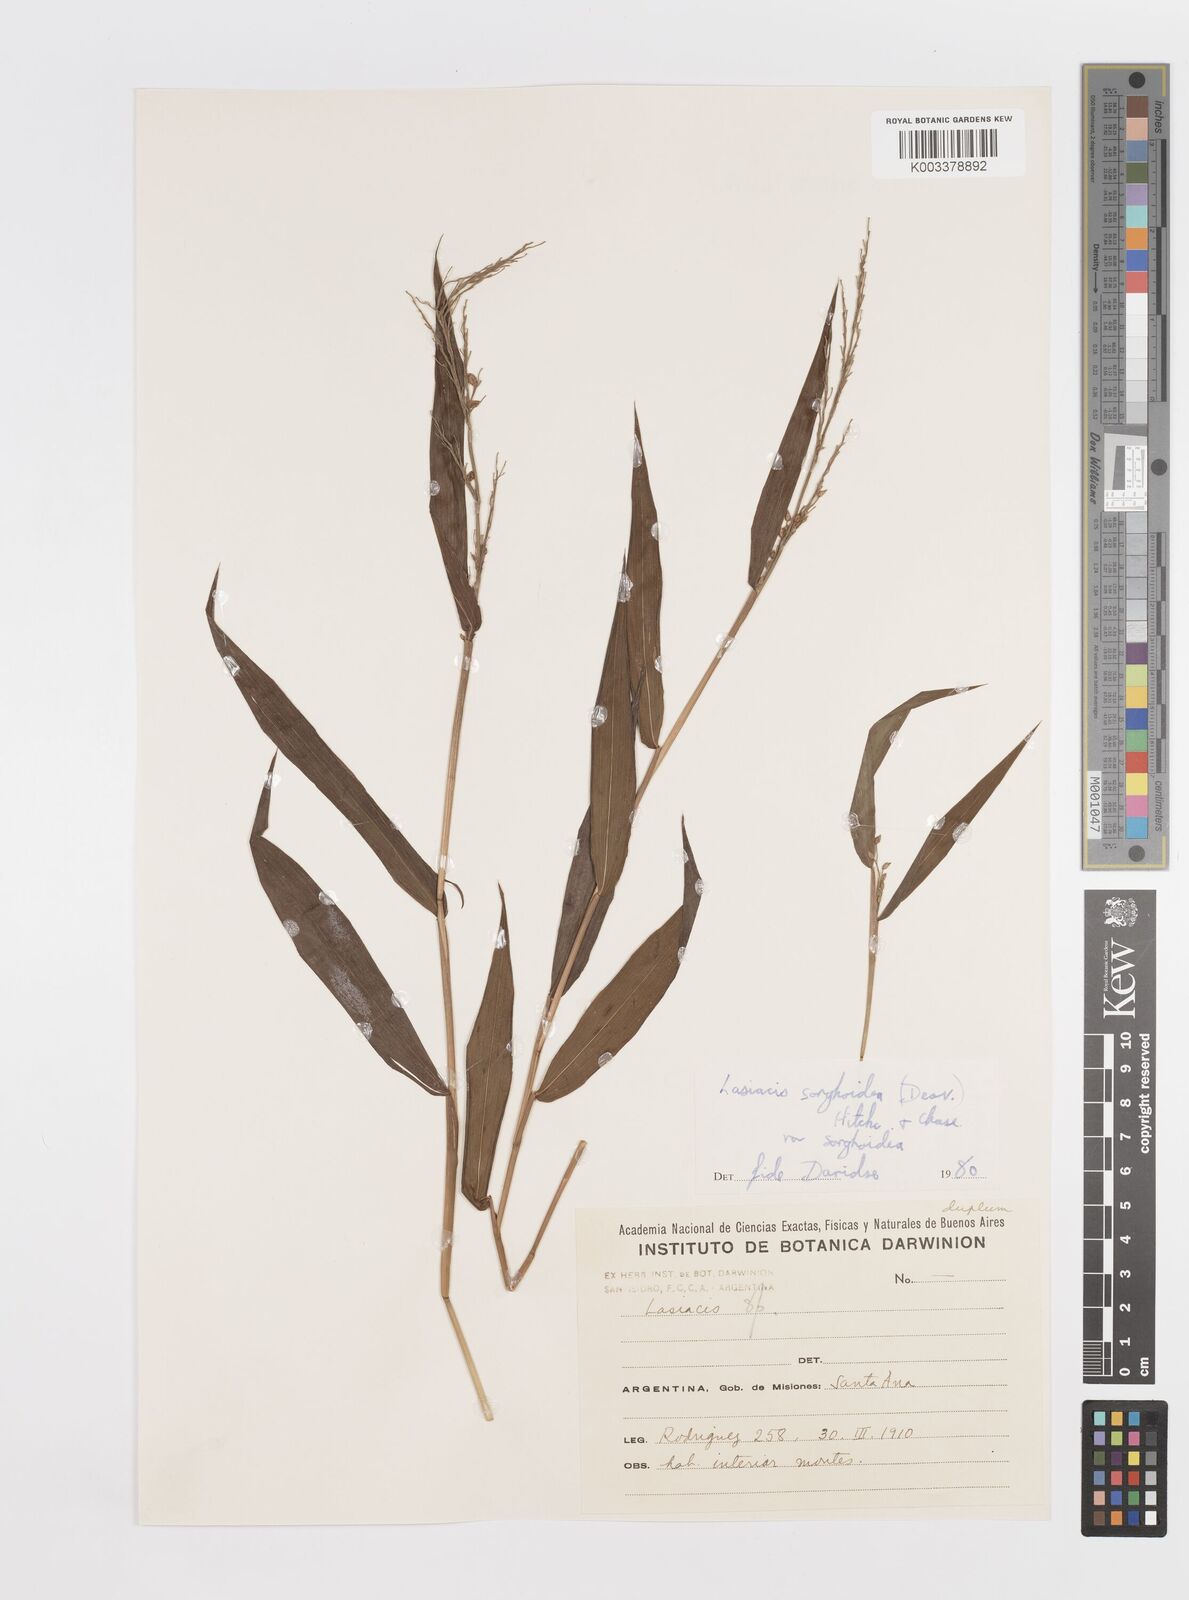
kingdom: Plantae
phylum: Tracheophyta
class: Liliopsida
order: Poales
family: Poaceae
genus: Lasiacis
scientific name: Lasiacis maculata
